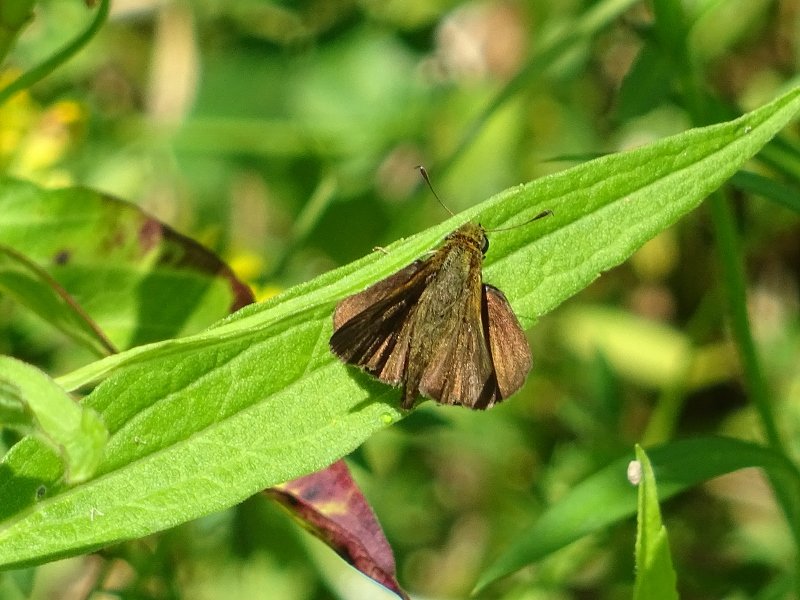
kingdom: Animalia
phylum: Arthropoda
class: Insecta
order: Lepidoptera
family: Hesperiidae
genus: Euphyes
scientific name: Euphyes vestris
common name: Dun Skipper
